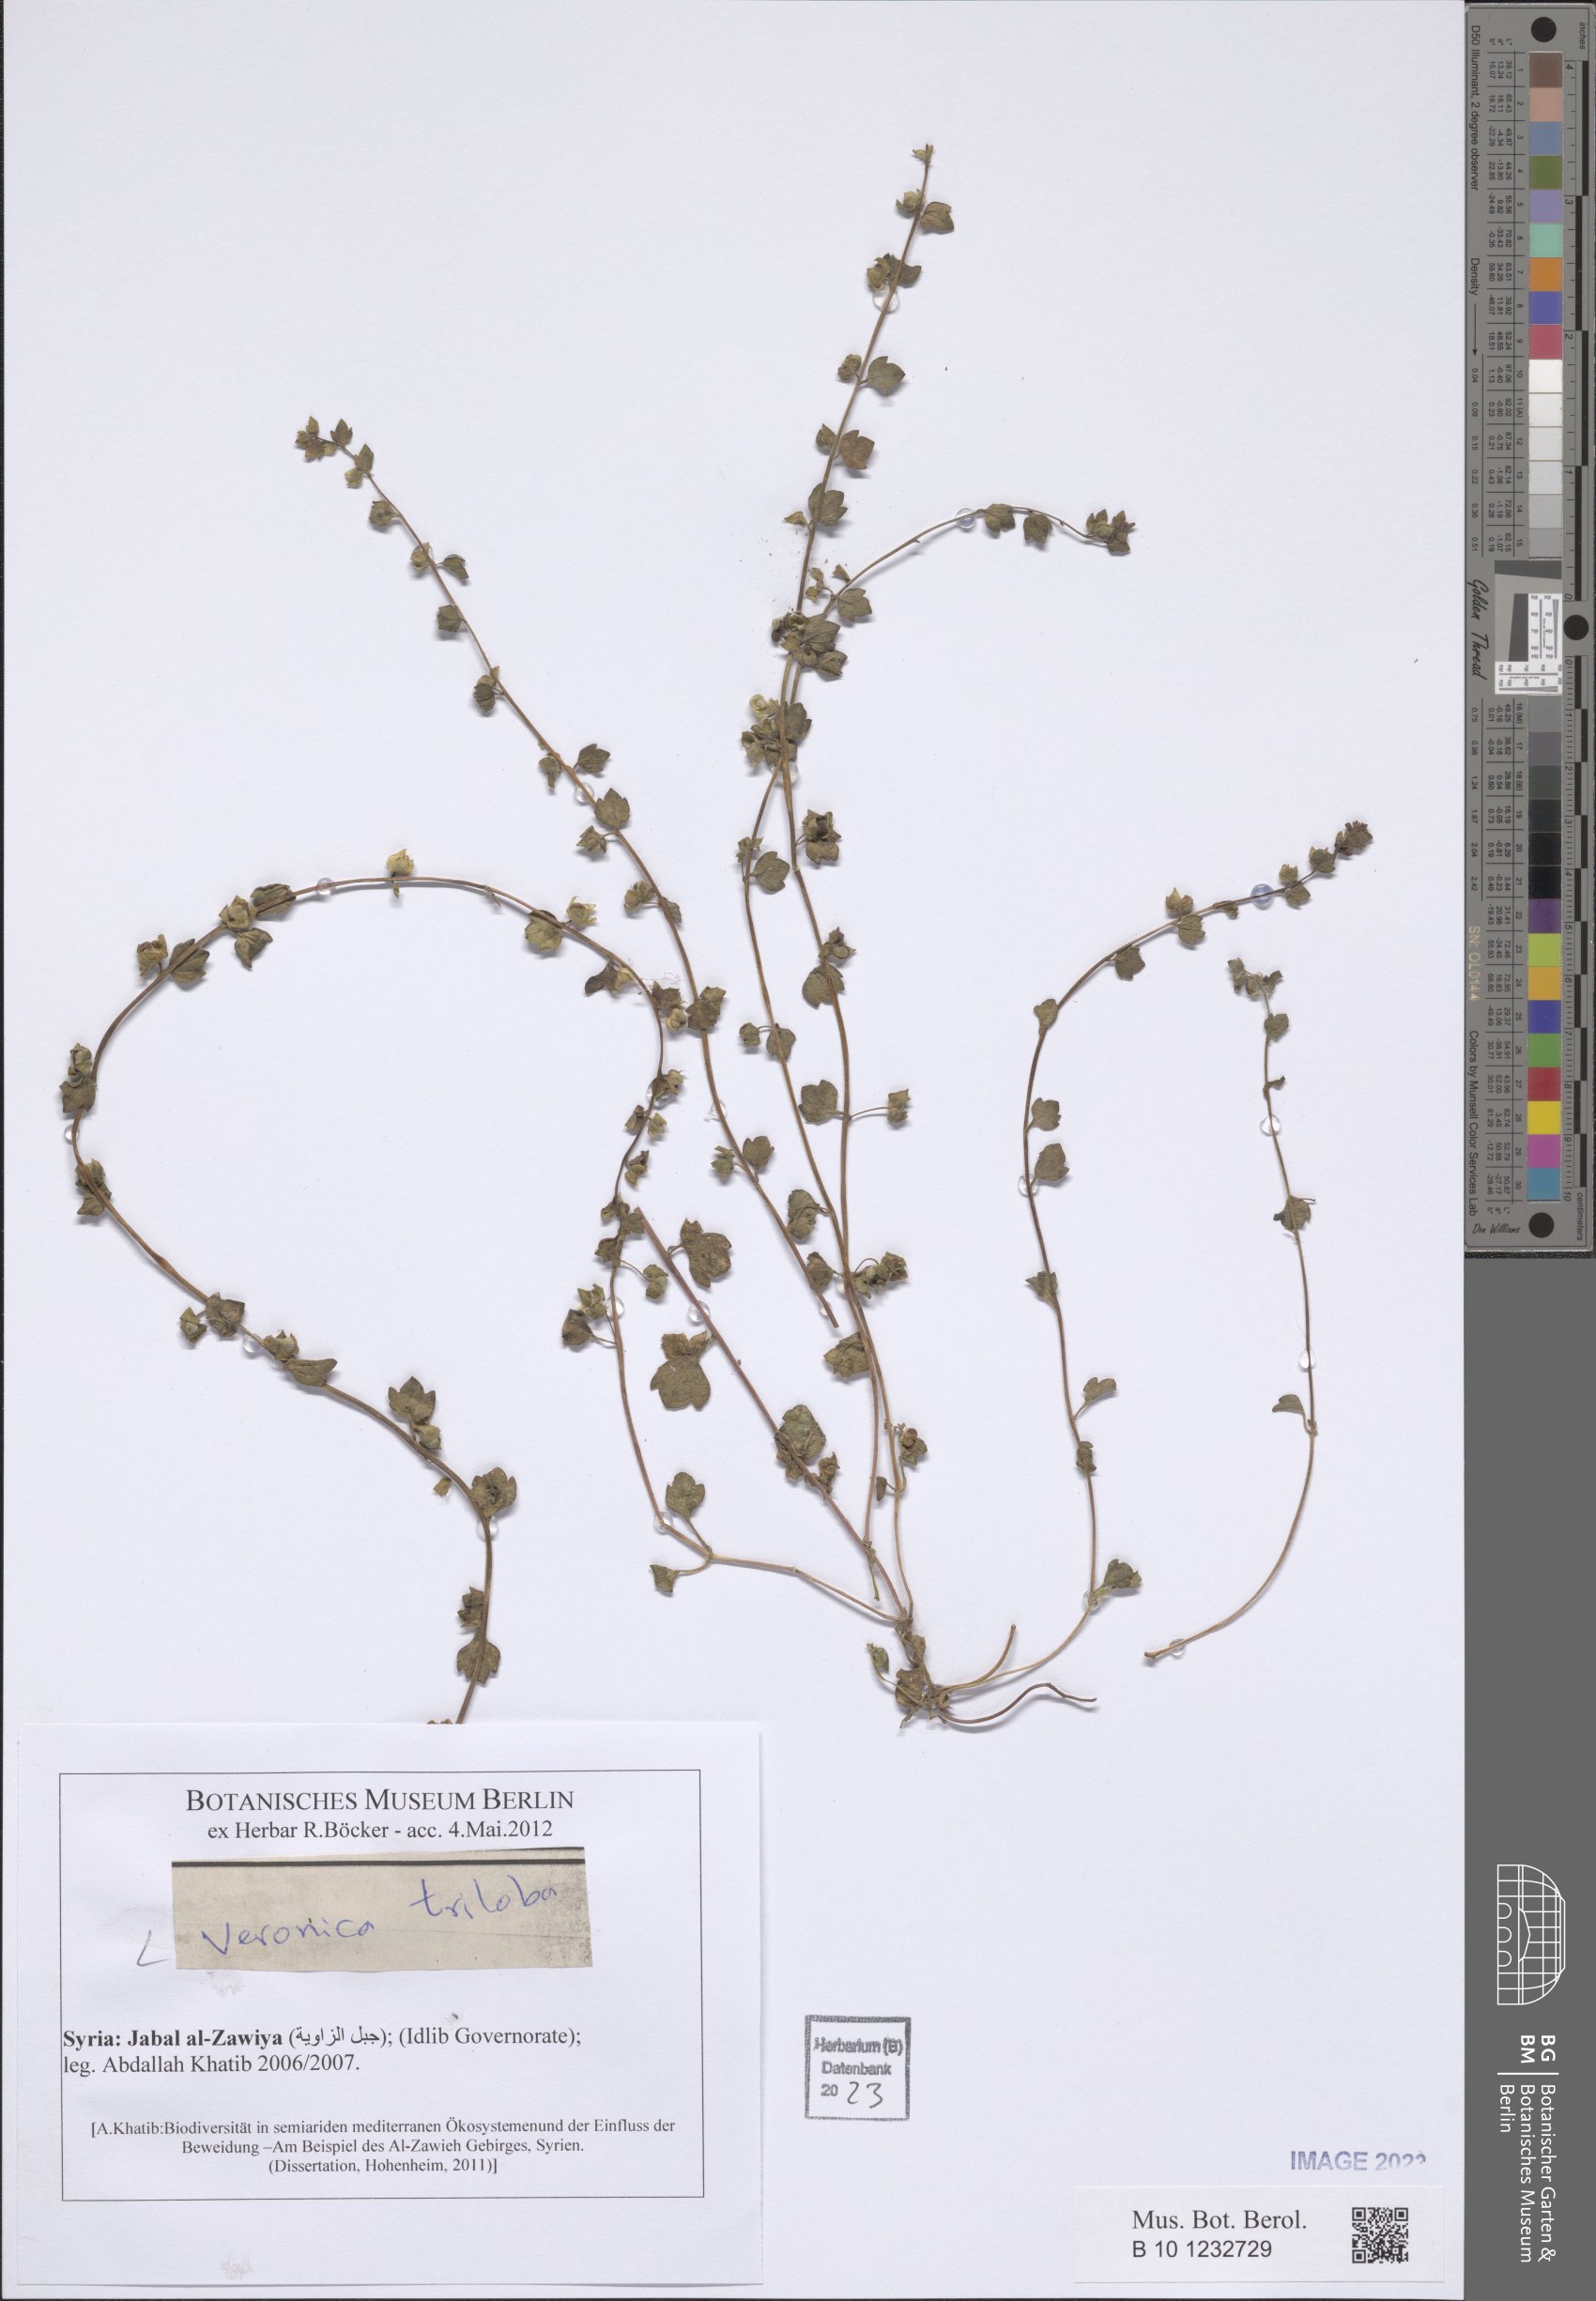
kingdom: Plantae
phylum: Tracheophyta
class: Magnoliopsida
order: Lamiales
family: Plantaginaceae
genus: Veronica
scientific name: Veronica triloba
